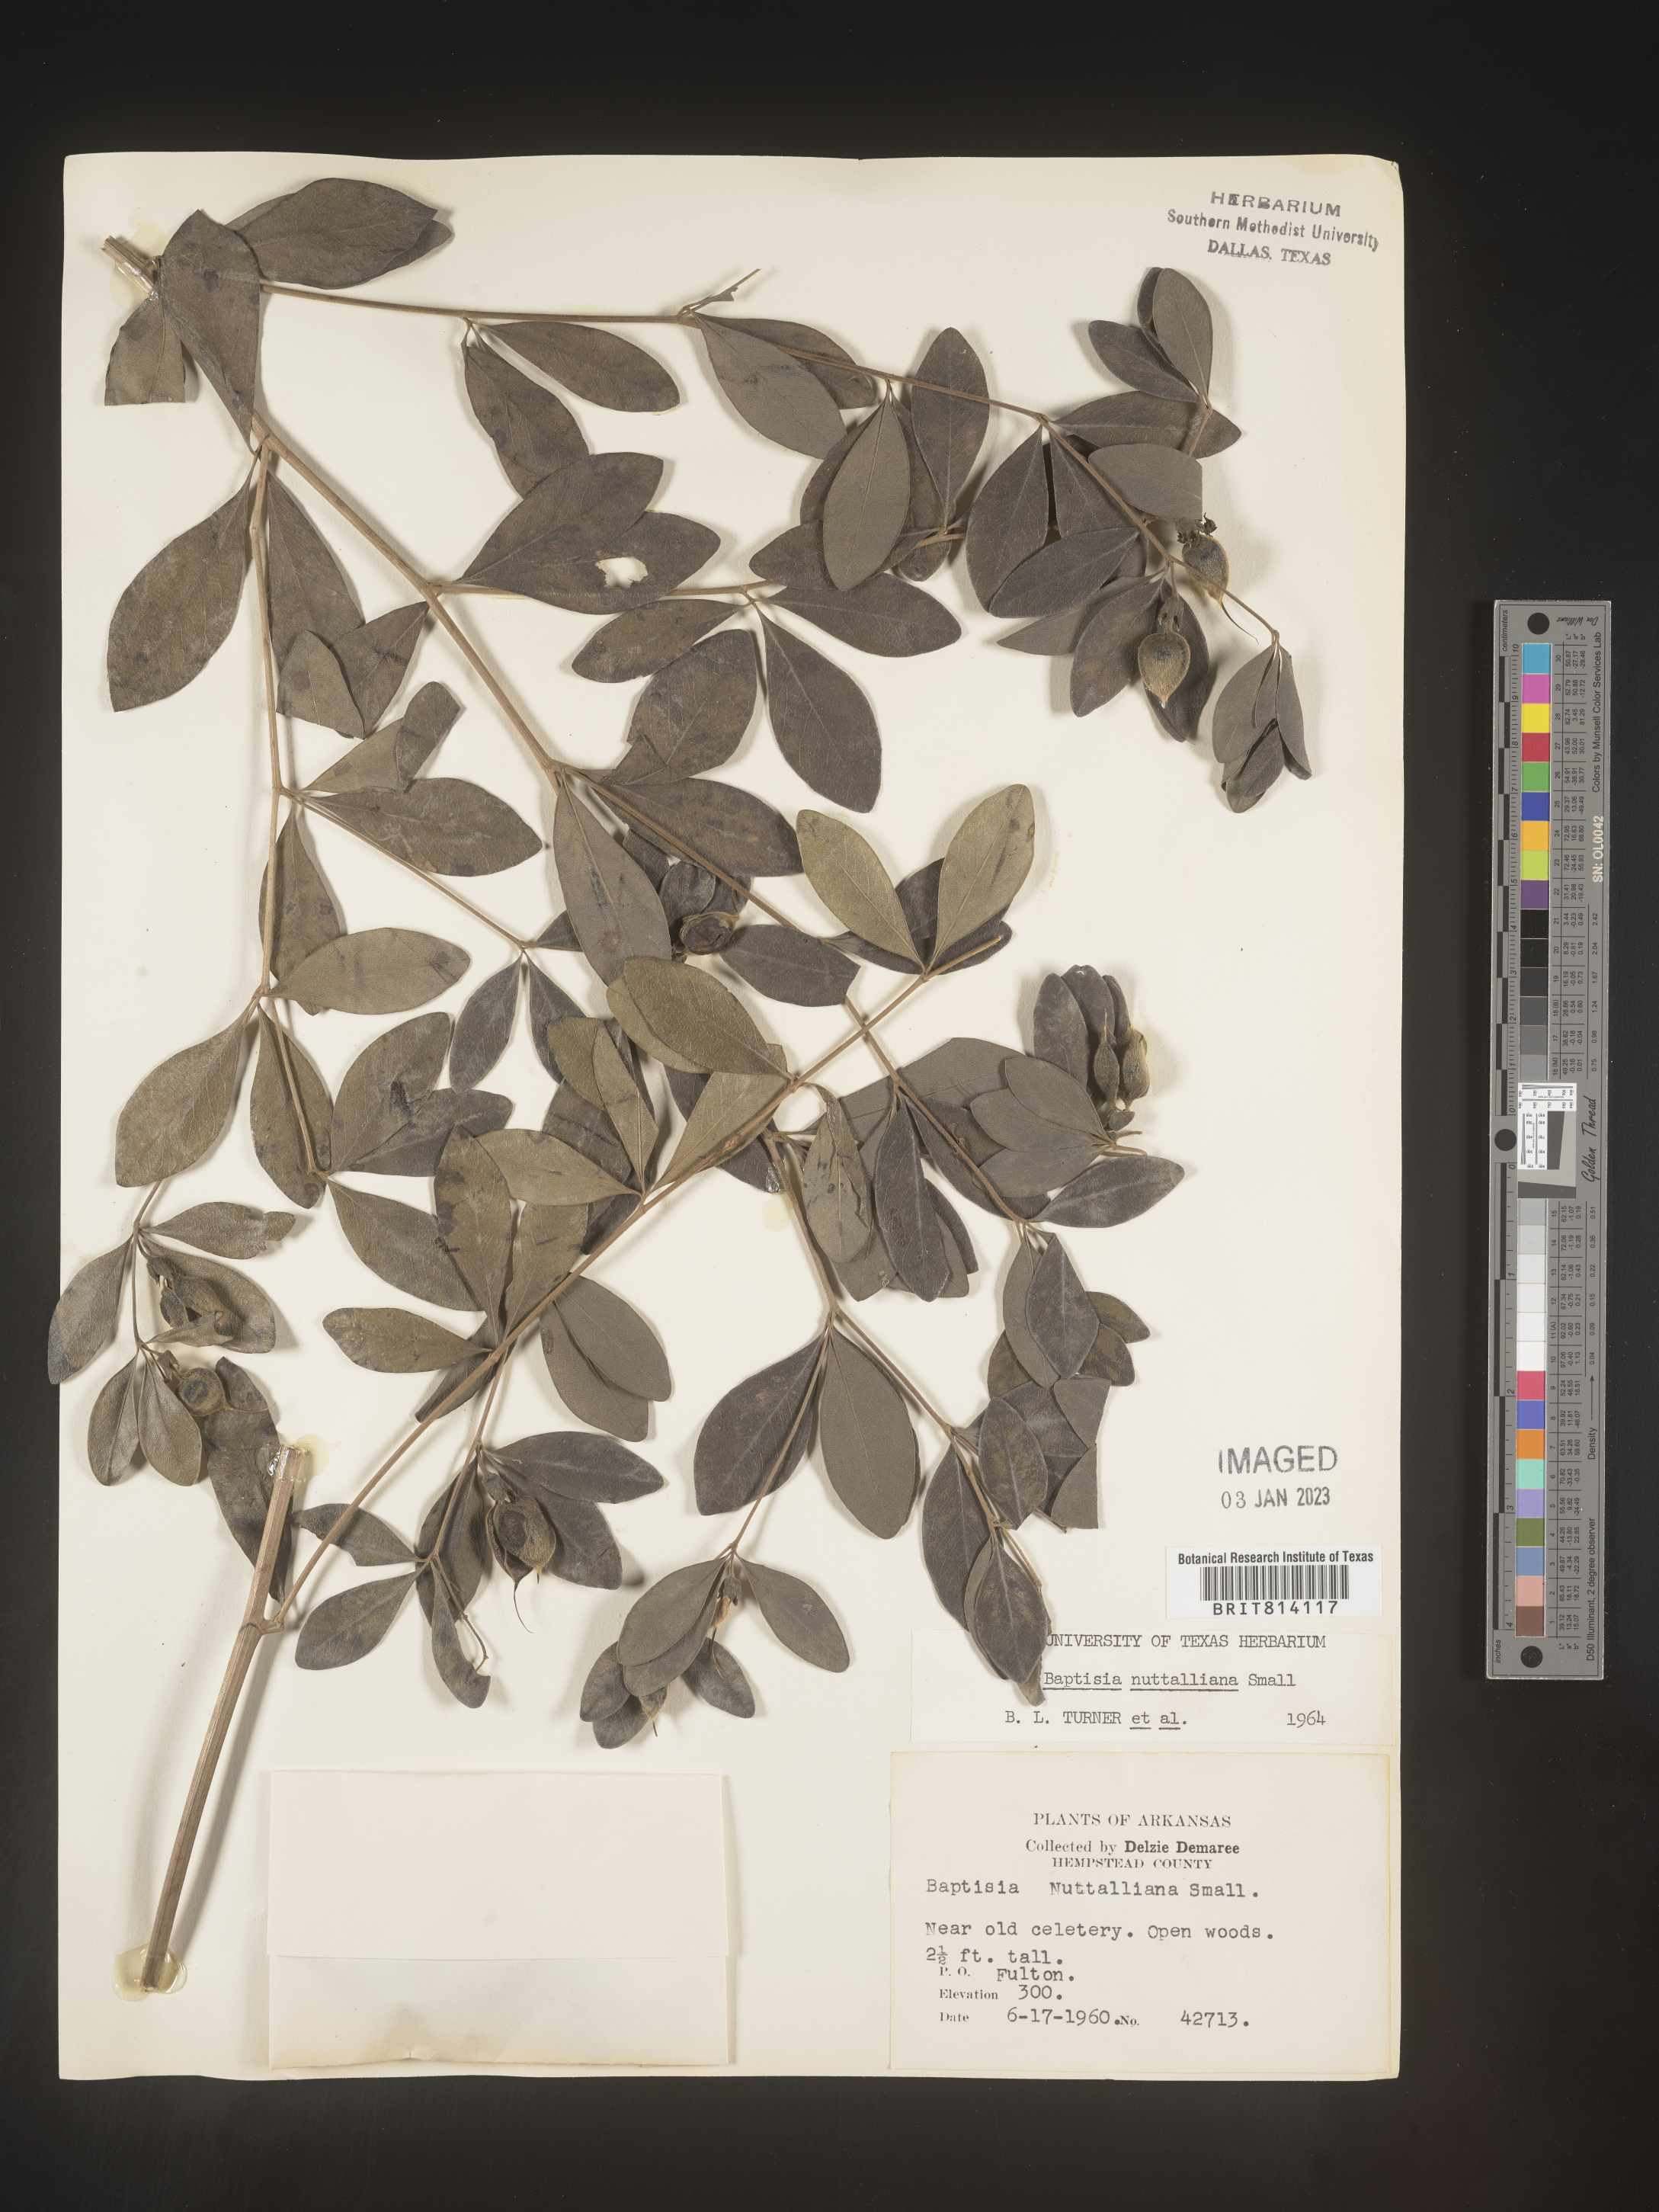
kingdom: Plantae
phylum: Tracheophyta
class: Magnoliopsida
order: Fabales
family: Fabaceae
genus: Baptisia
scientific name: Baptisia nuttalliana
